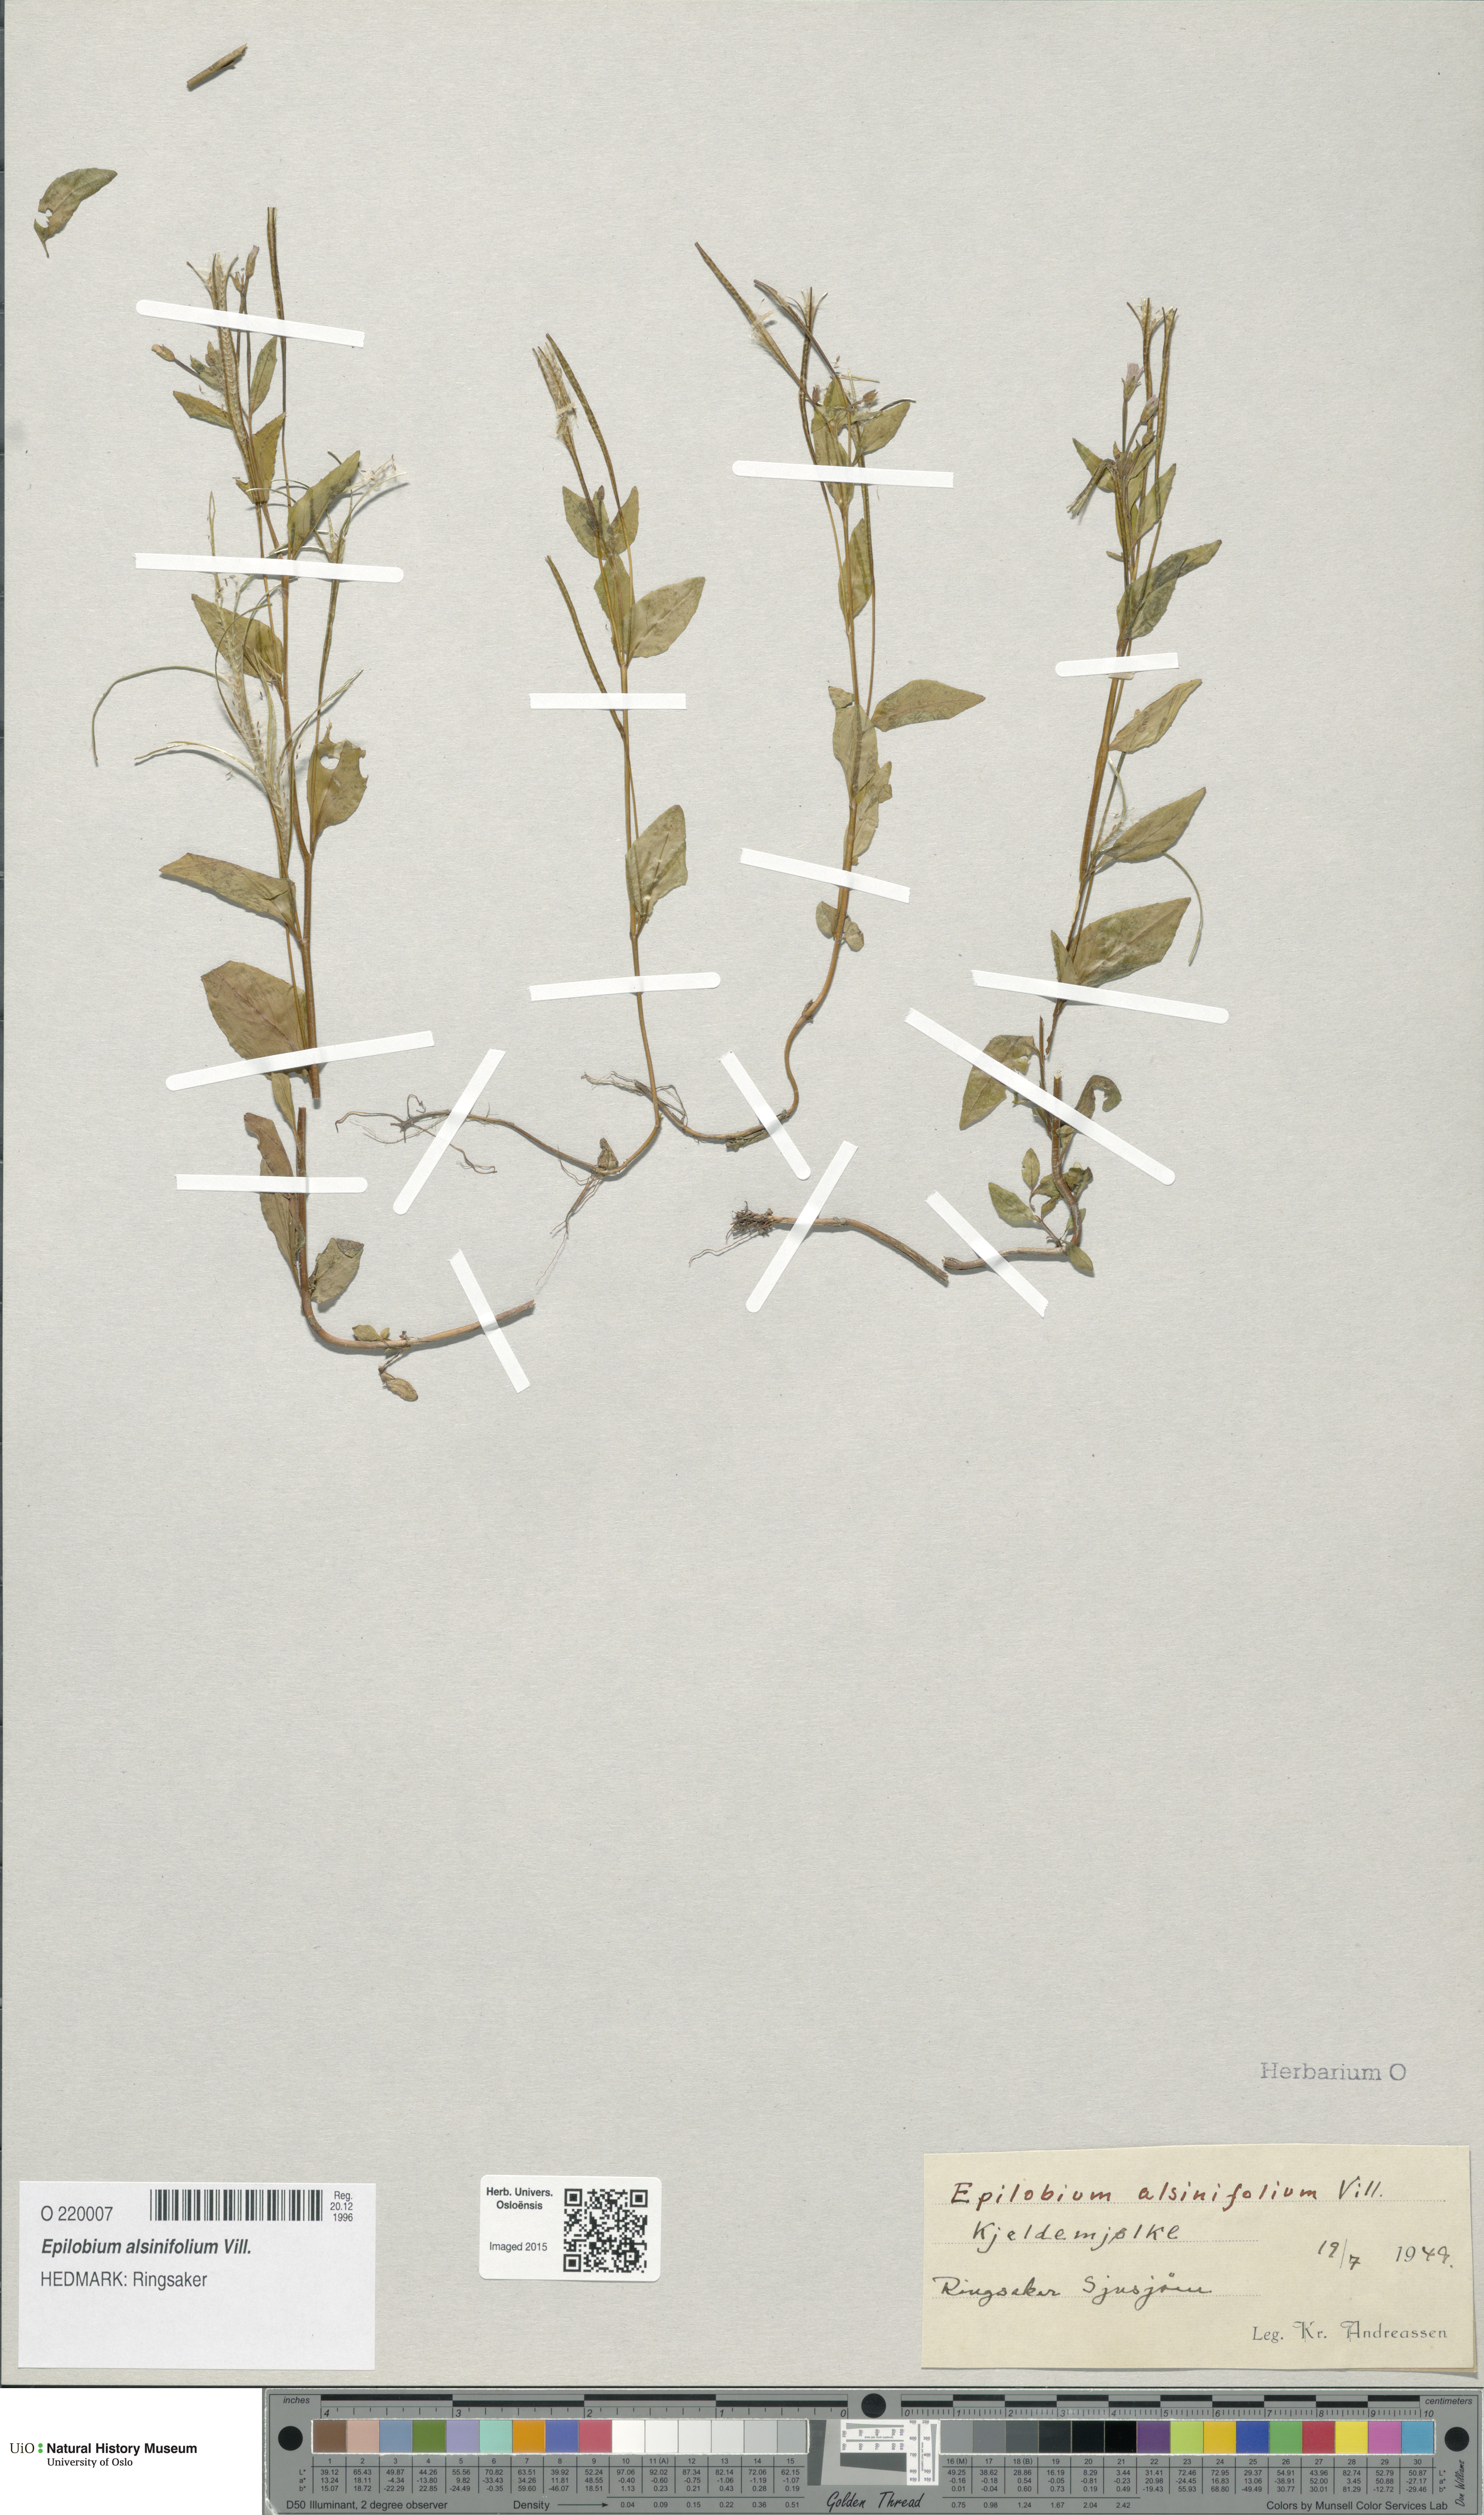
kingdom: Plantae
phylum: Tracheophyta
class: Magnoliopsida
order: Myrtales
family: Onagraceae
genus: Epilobium
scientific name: Epilobium alsinifolium
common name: Chickweed willowherb
